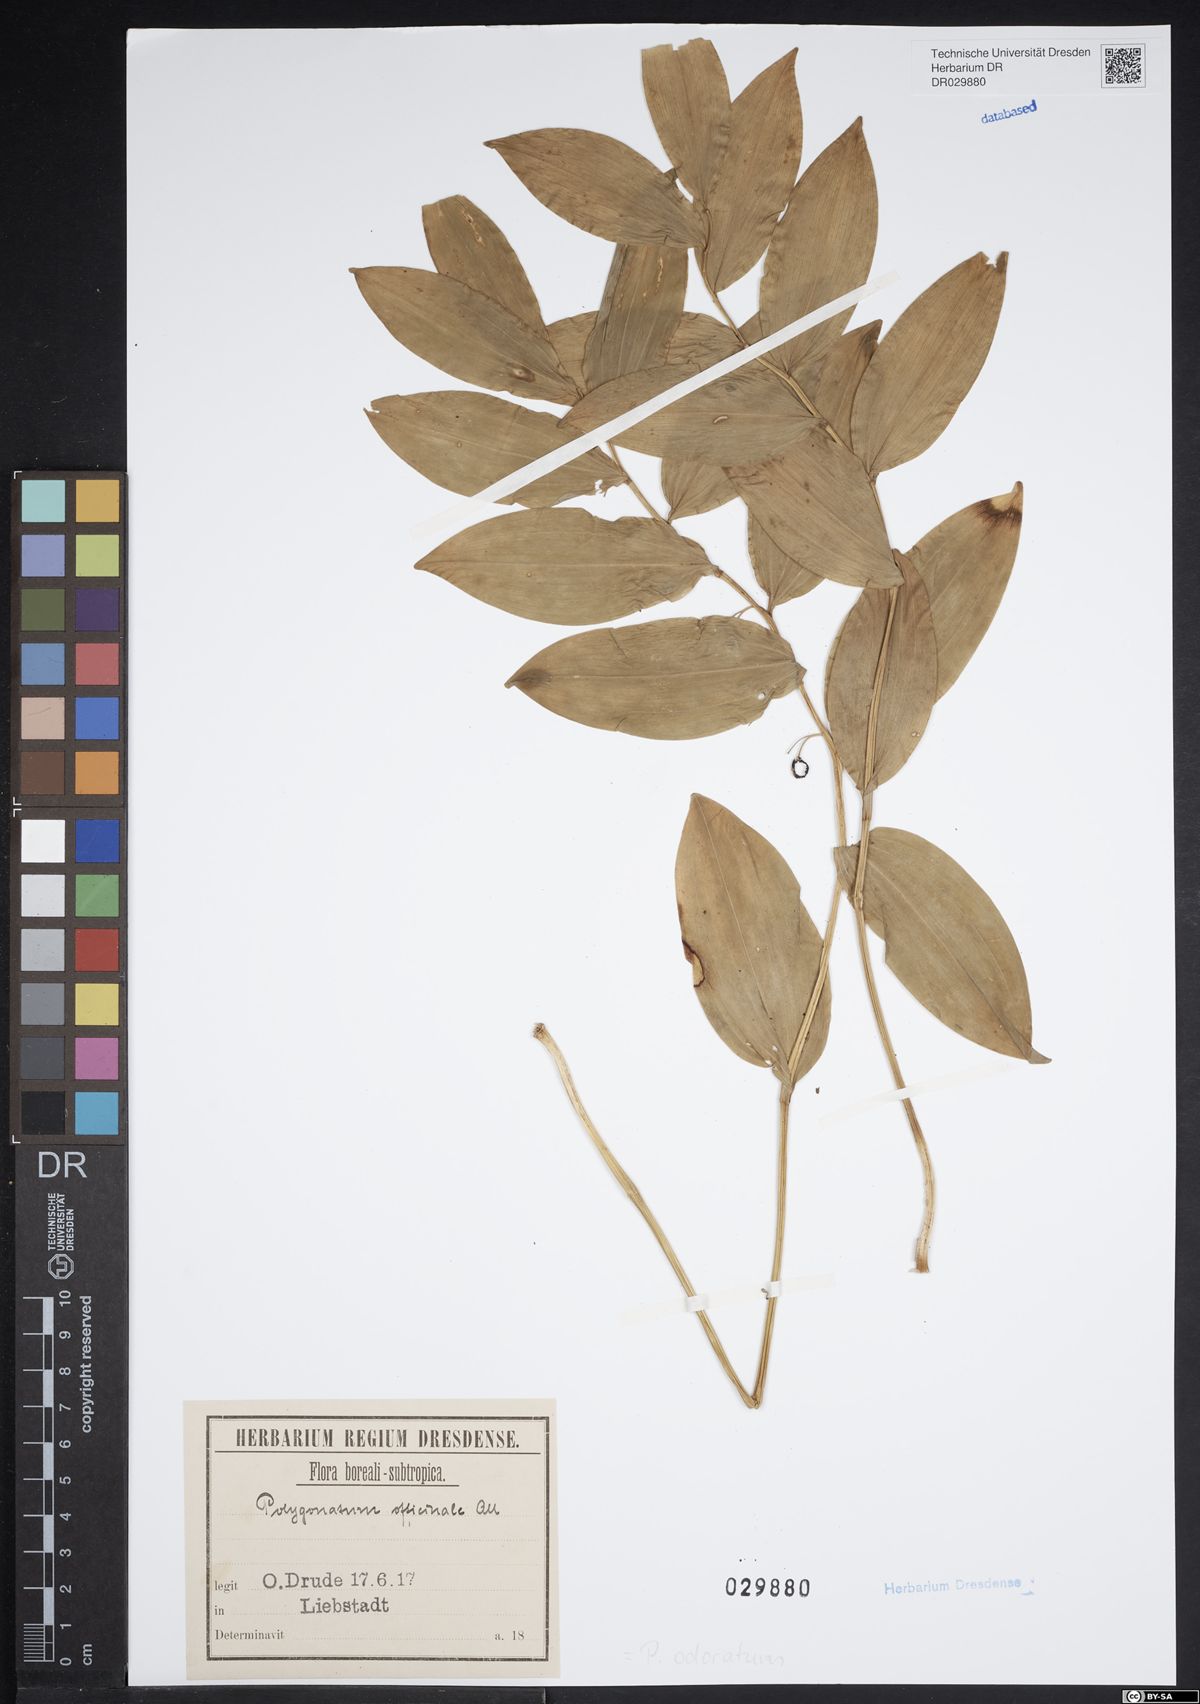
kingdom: Plantae
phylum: Tracheophyta
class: Liliopsida
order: Asparagales
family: Asparagaceae
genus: Polygonatum
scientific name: Polygonatum odoratum
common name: Angular solomon's-seal
